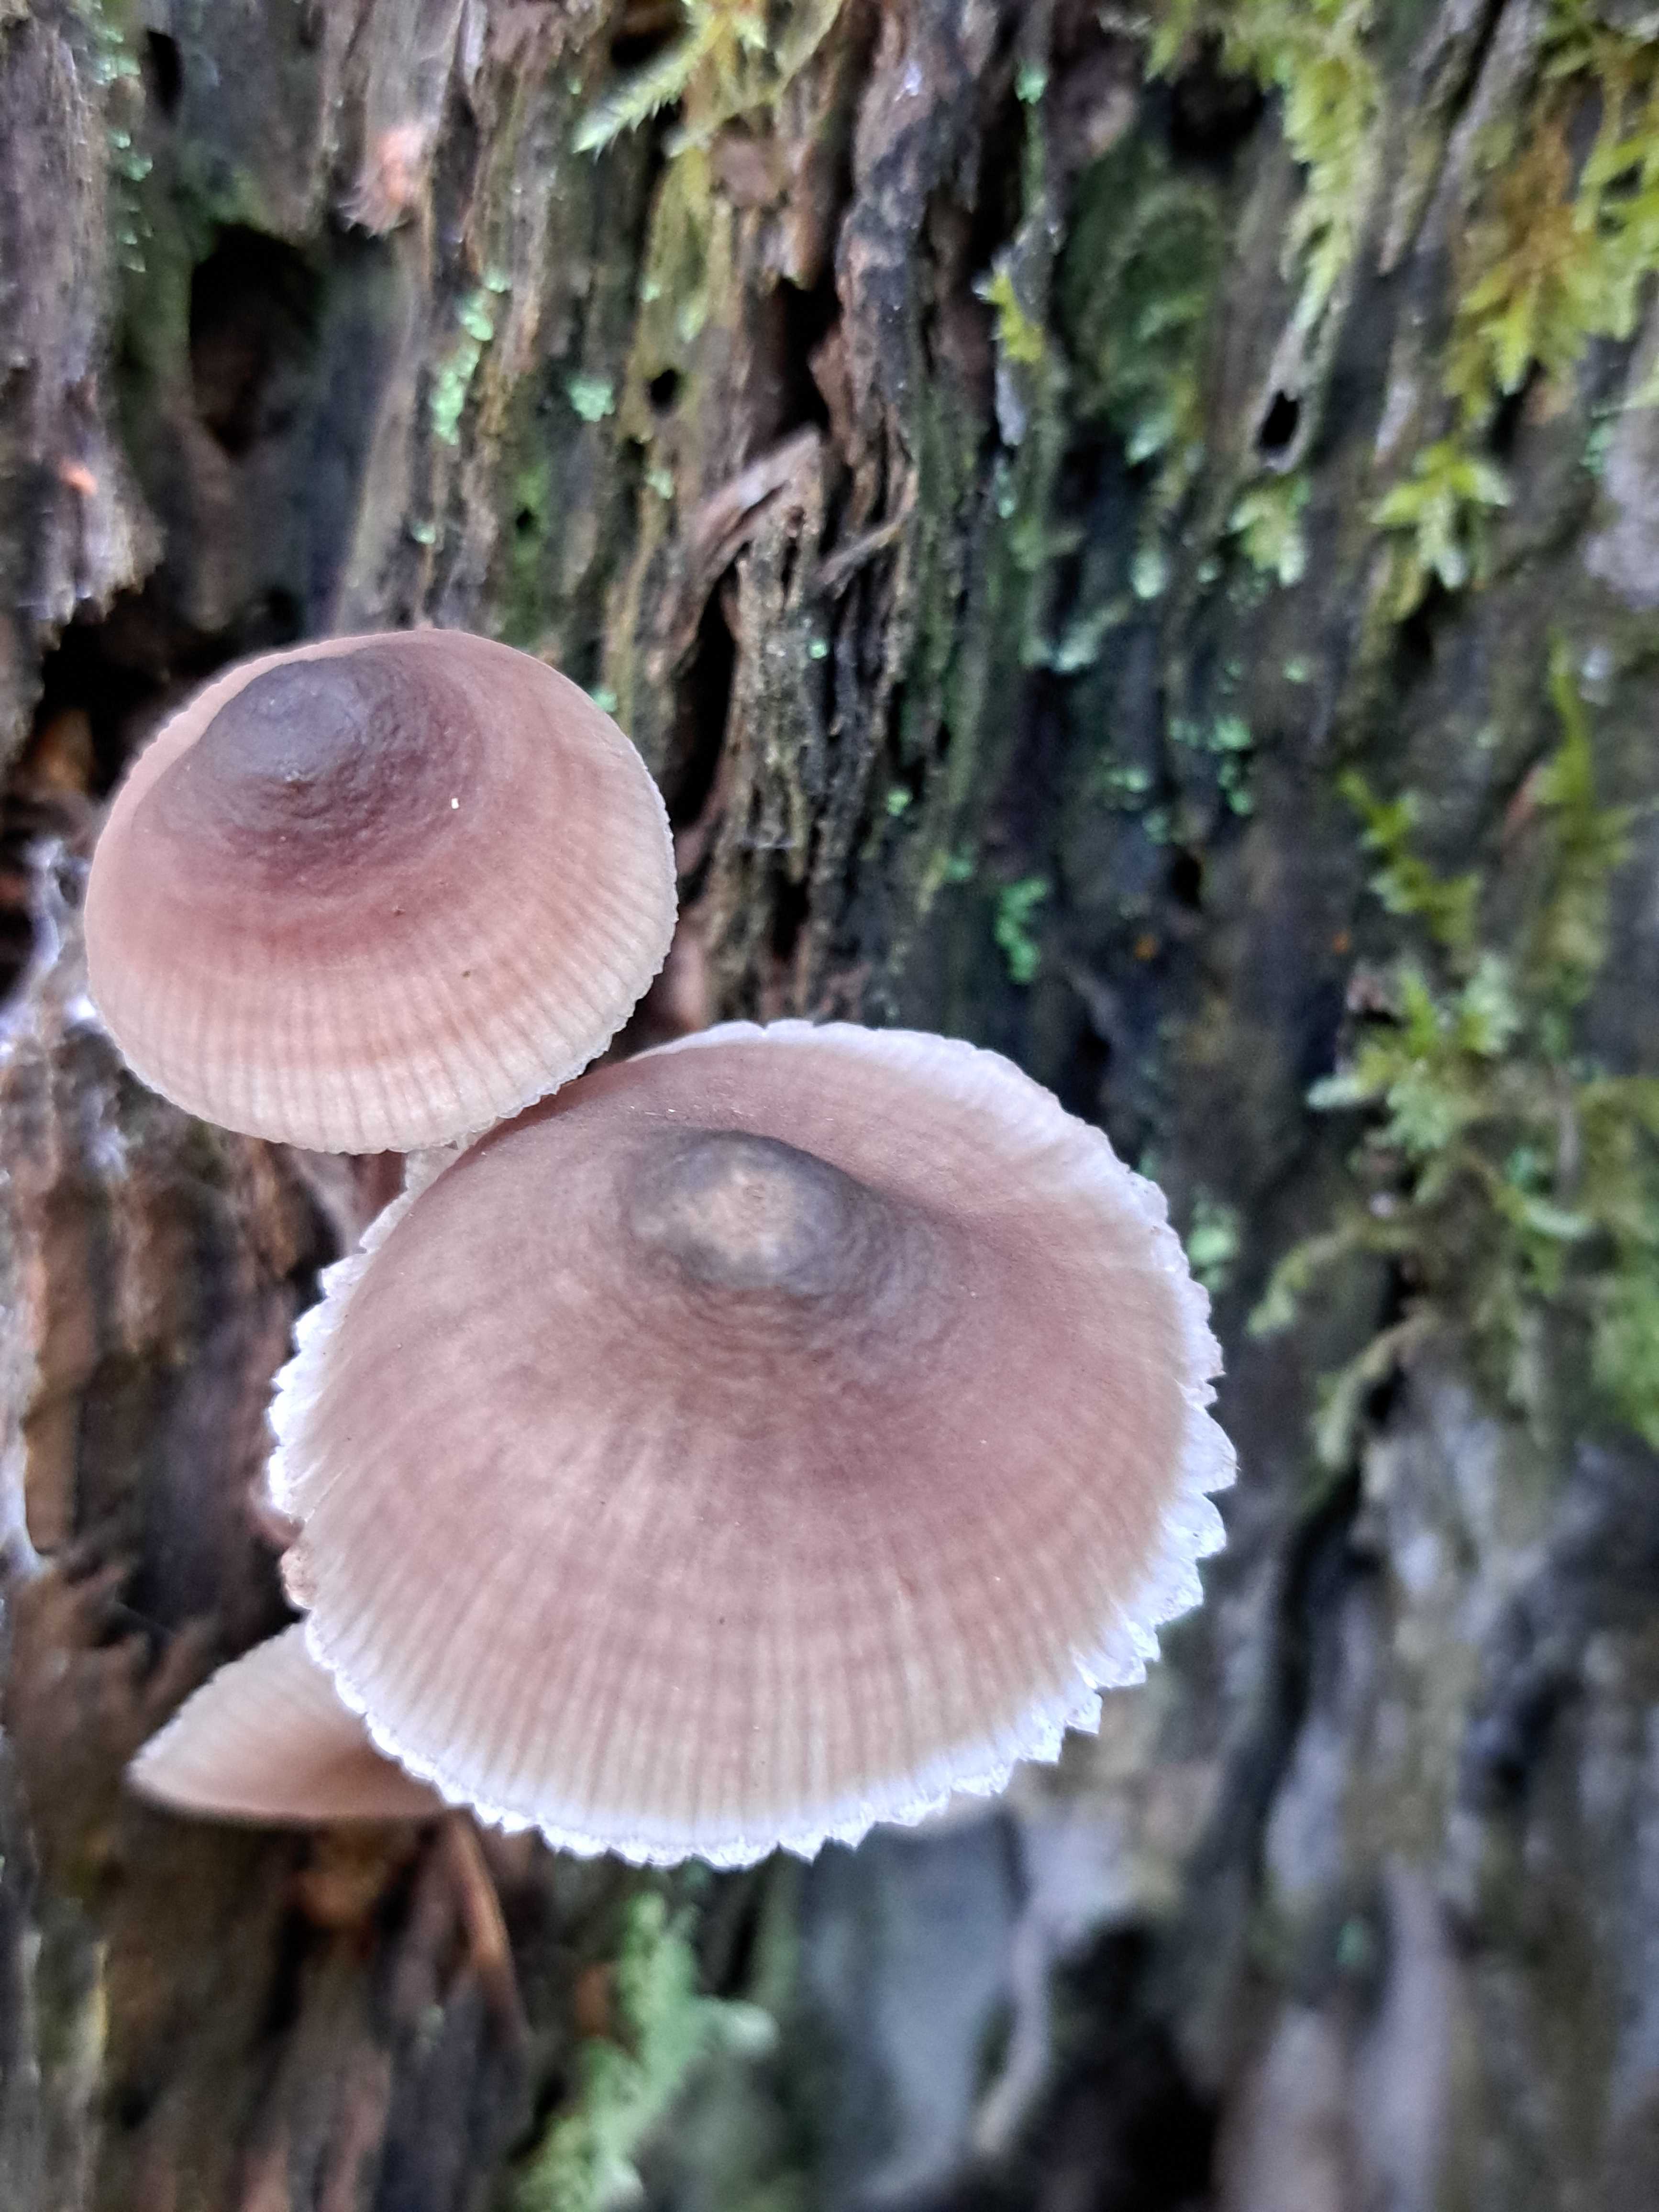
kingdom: Fungi
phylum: Basidiomycota
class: Agaricomycetes
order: Agaricales
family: Mycenaceae
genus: Mycena
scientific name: Mycena haematopus
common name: blødende huesvamp
